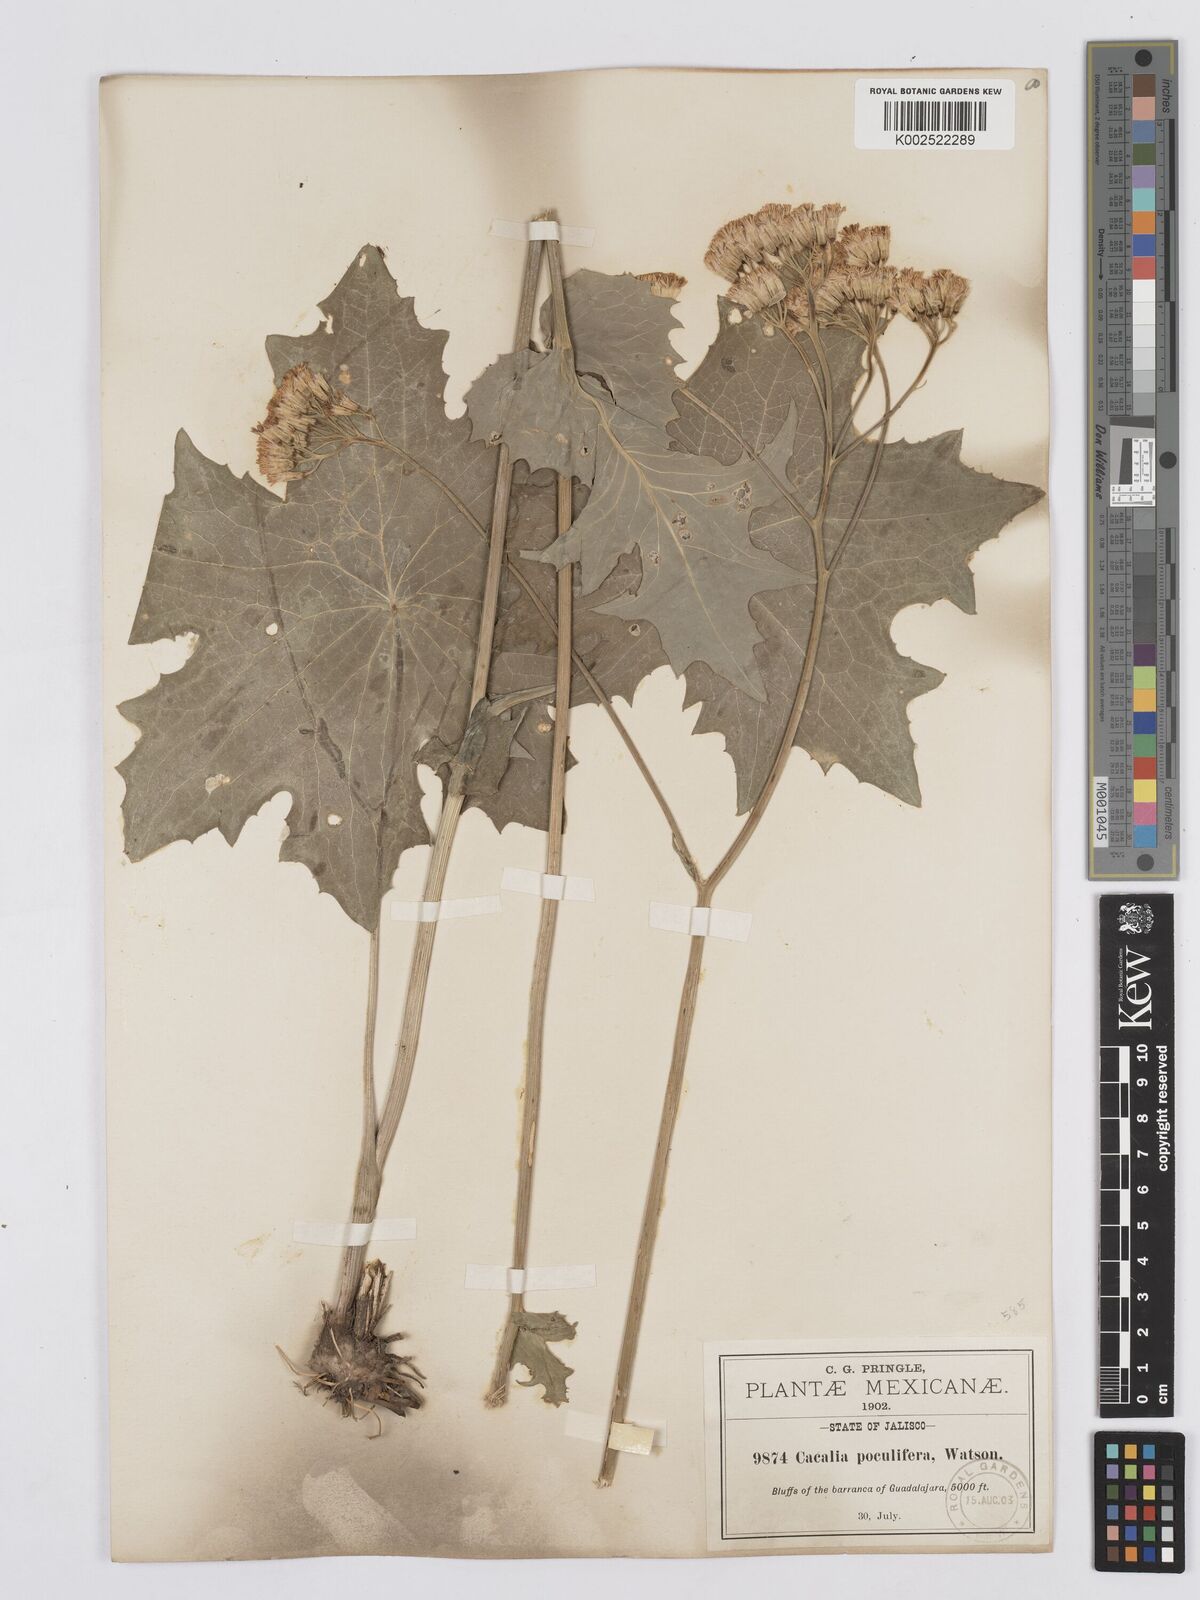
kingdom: Plantae
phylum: Tracheophyta
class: Magnoliopsida
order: Asterales
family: Asteraceae
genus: Psacalium
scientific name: Psacalium poculiferum
